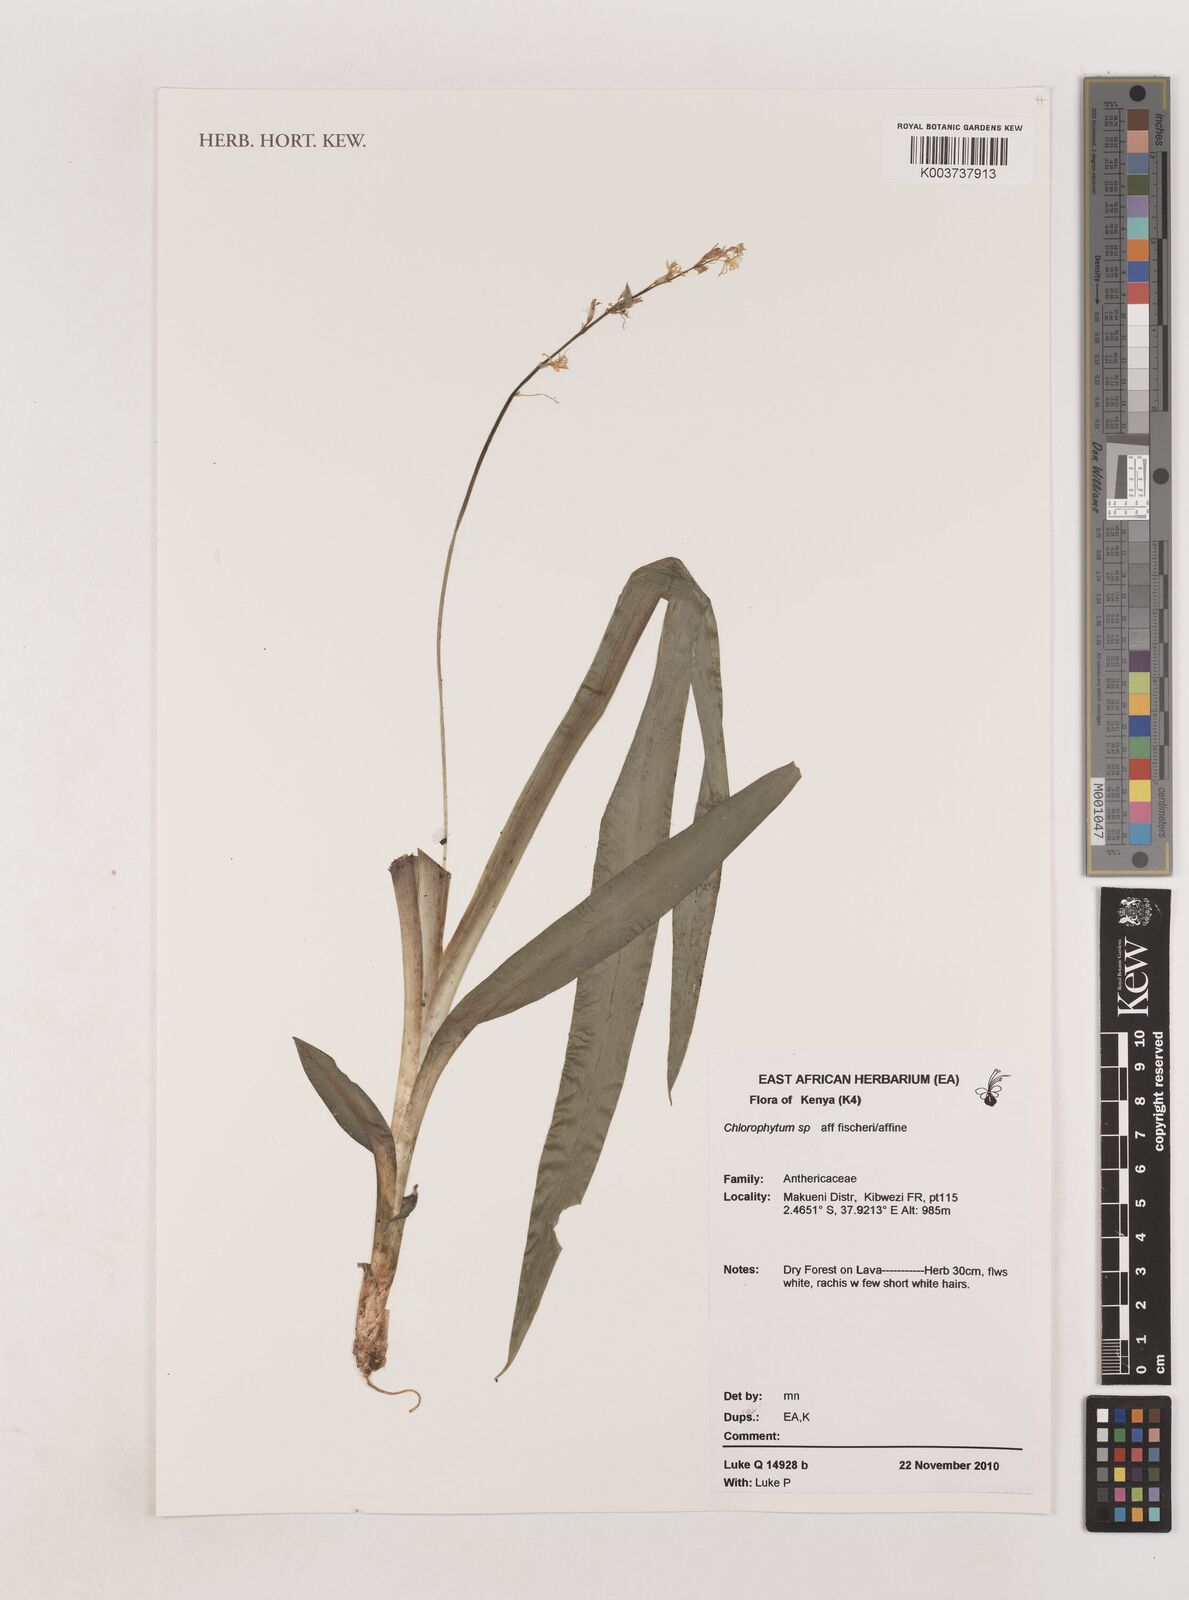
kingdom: Plantae
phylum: Tracheophyta
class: Liliopsida
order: Asparagales
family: Asparagaceae
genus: Chlorophytum
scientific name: Chlorophytum affine
